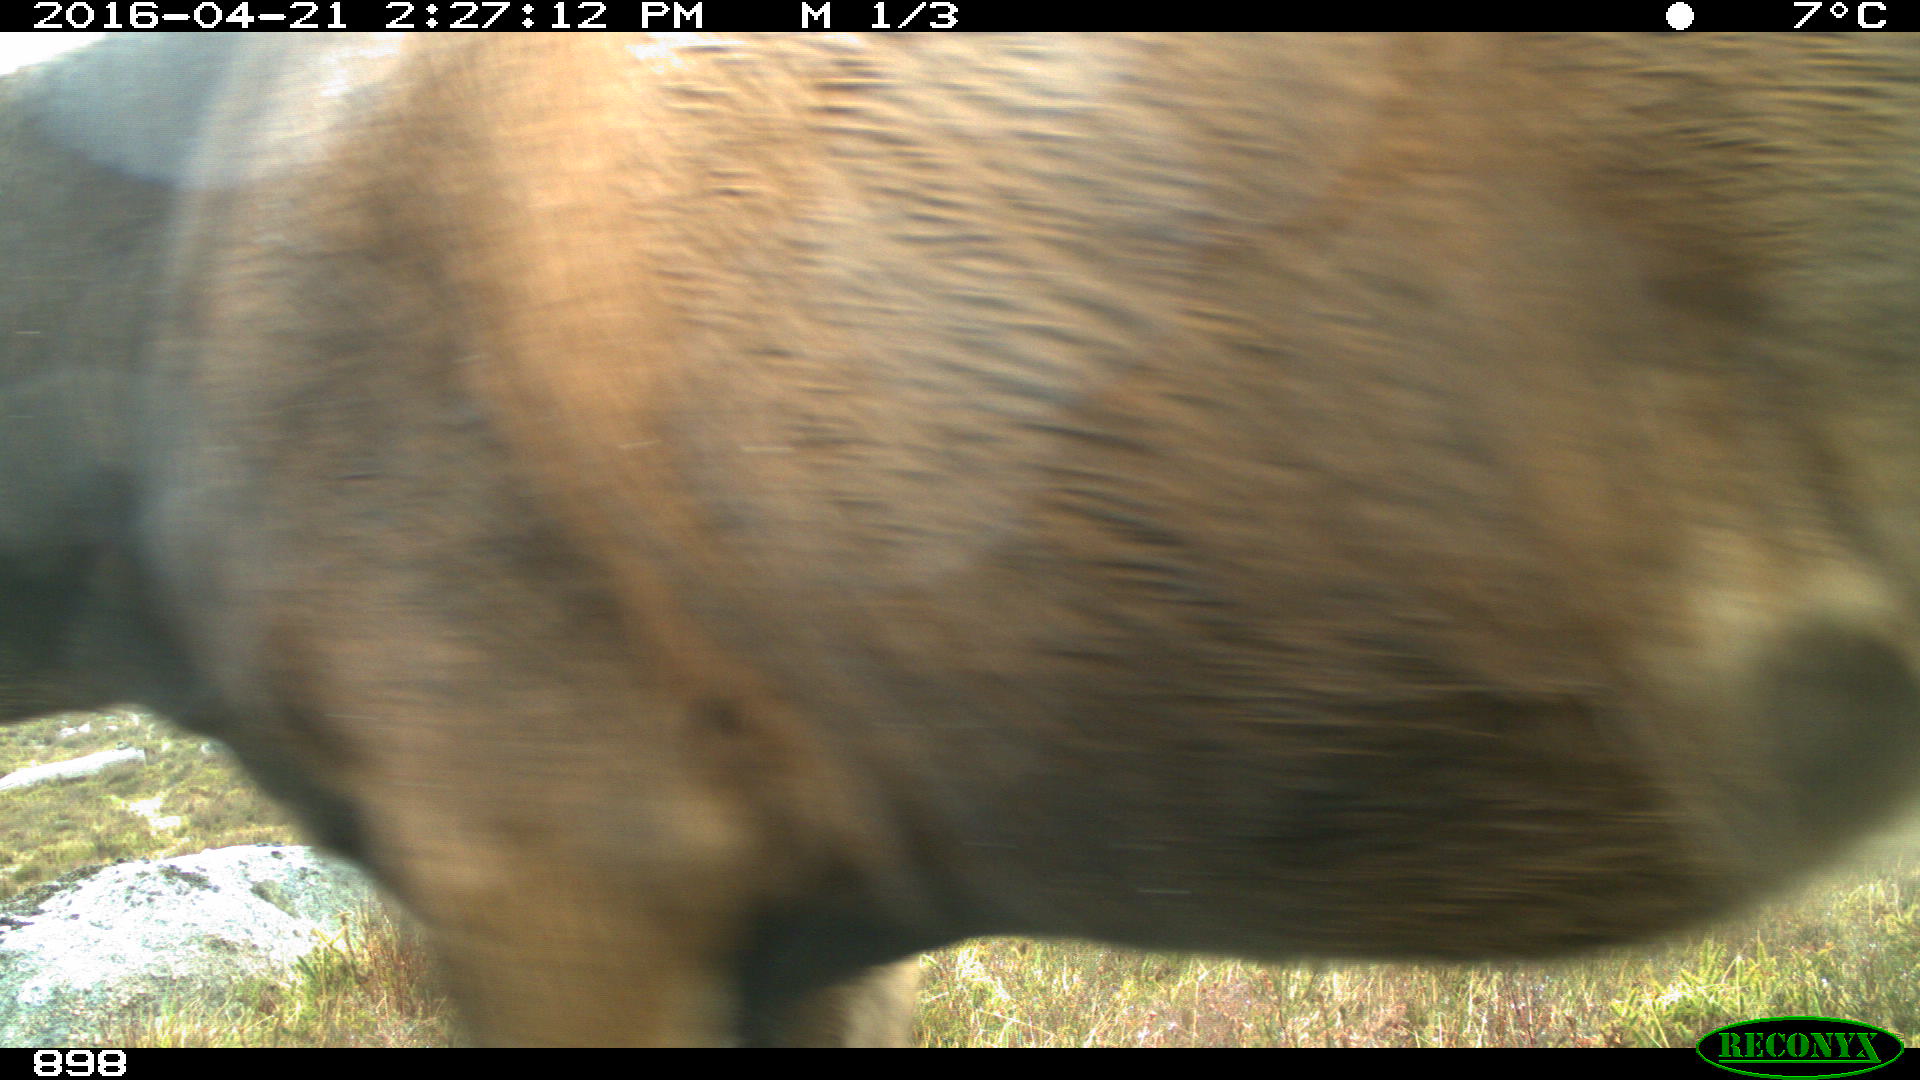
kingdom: Animalia
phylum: Chordata
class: Mammalia
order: Artiodactyla
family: Cervidae
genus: Capreolus
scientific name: Capreolus capreolus
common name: Western roe deer
